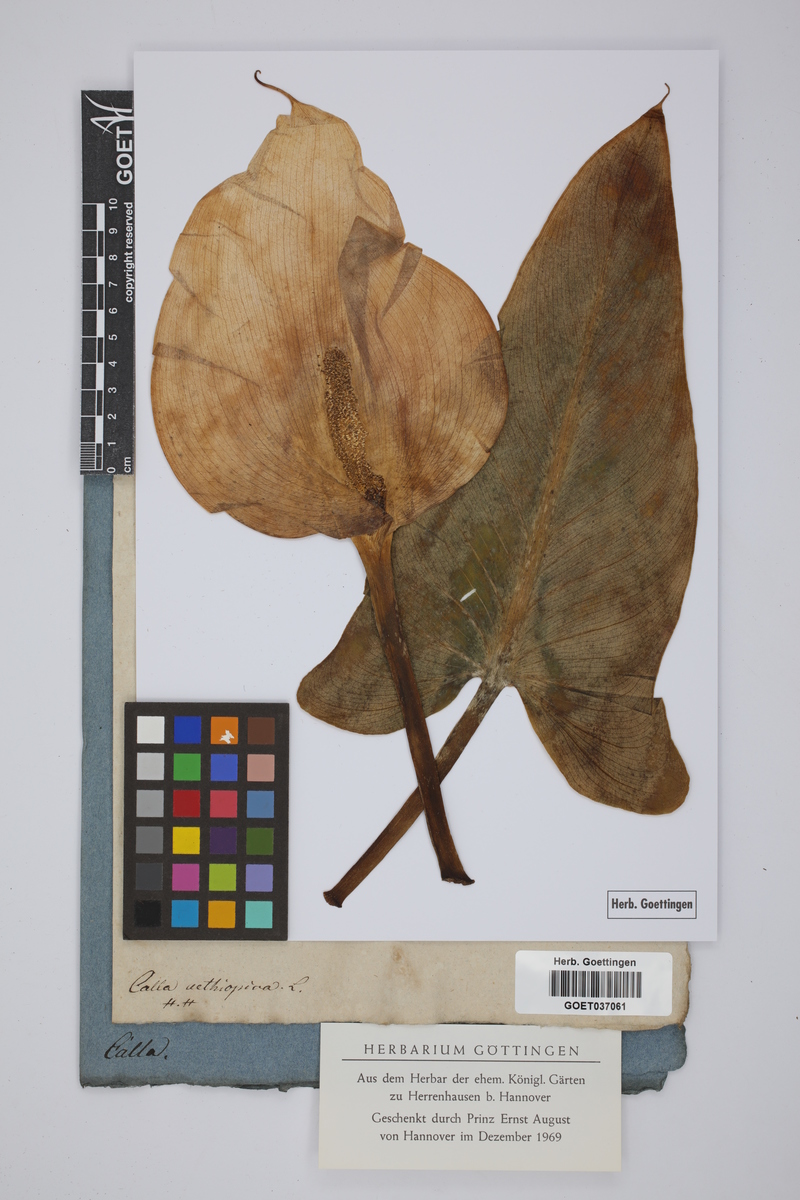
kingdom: Plantae
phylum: Tracheophyta
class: Liliopsida
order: Alismatales
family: Araceae
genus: Zantedeschia
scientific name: Zantedeschia aethiopica
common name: Altar-lily
